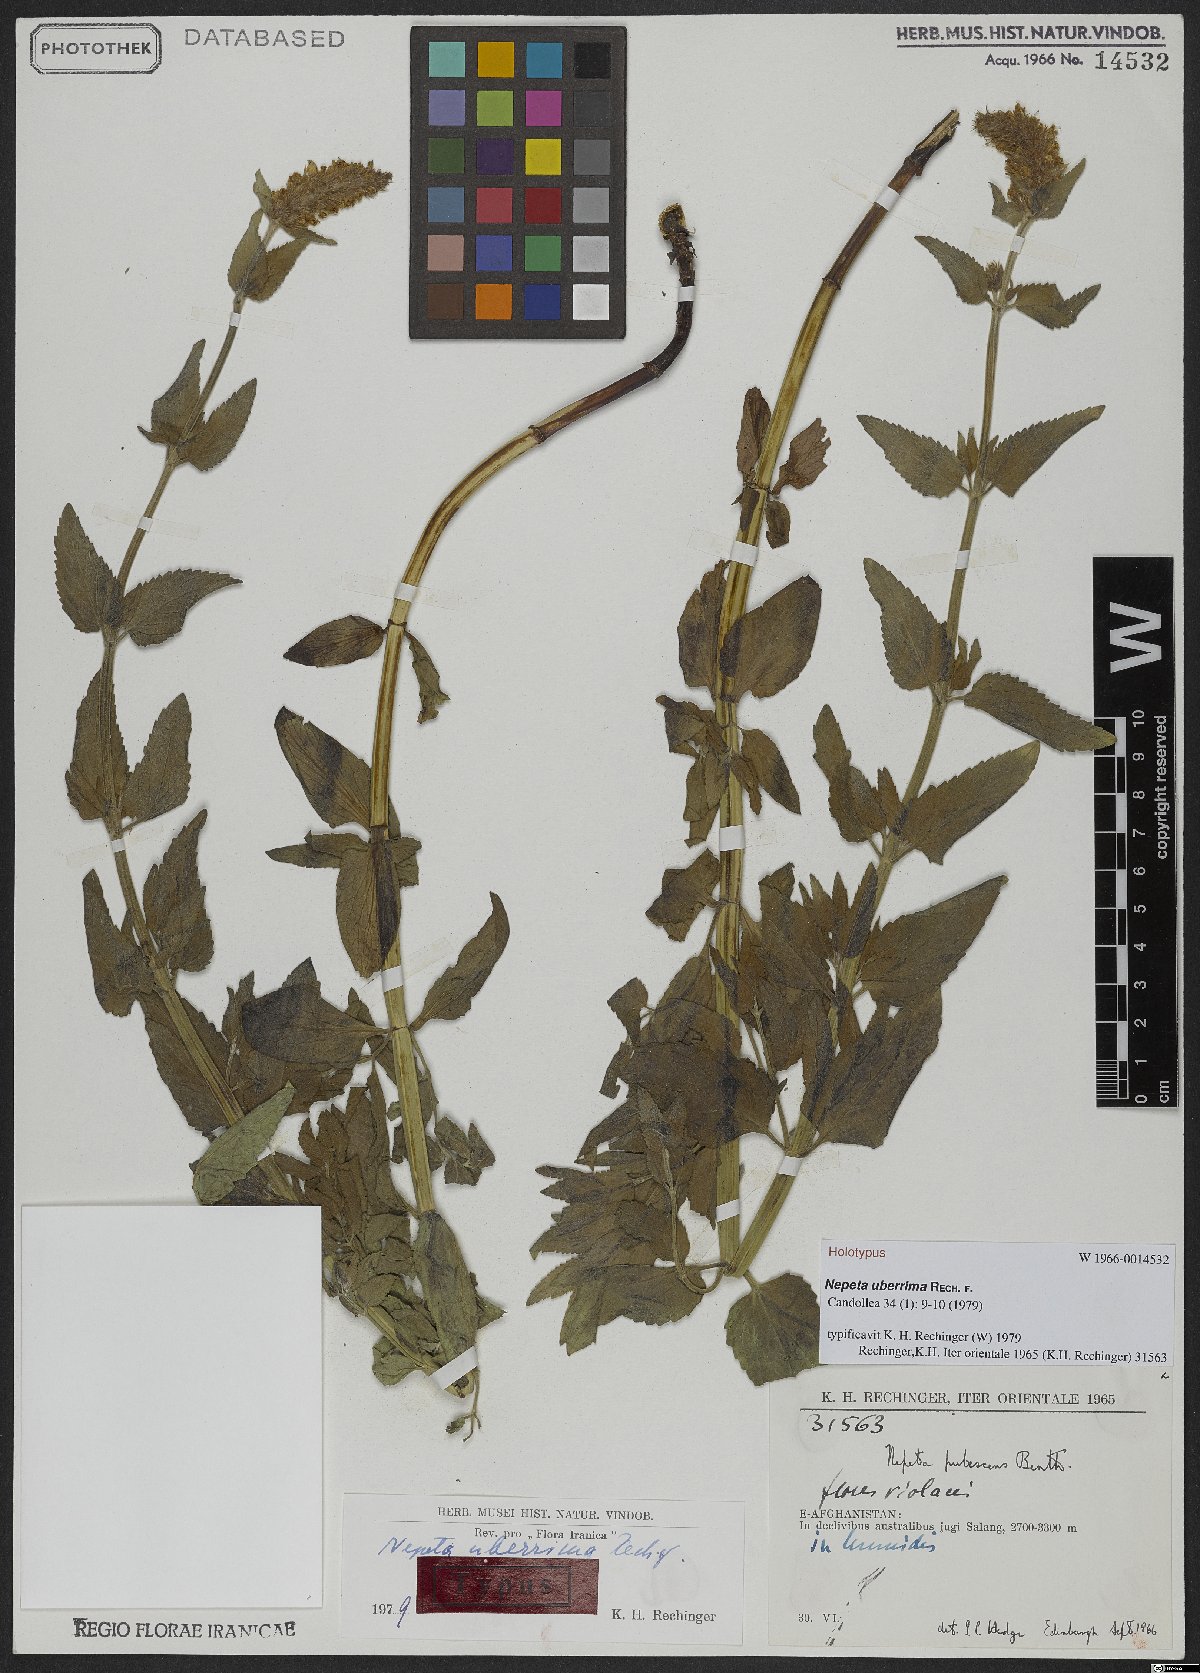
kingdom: Plantae
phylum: Tracheophyta
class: Magnoliopsida
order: Lamiales
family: Lamiaceae
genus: Nepeta
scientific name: Nepeta uberrima
